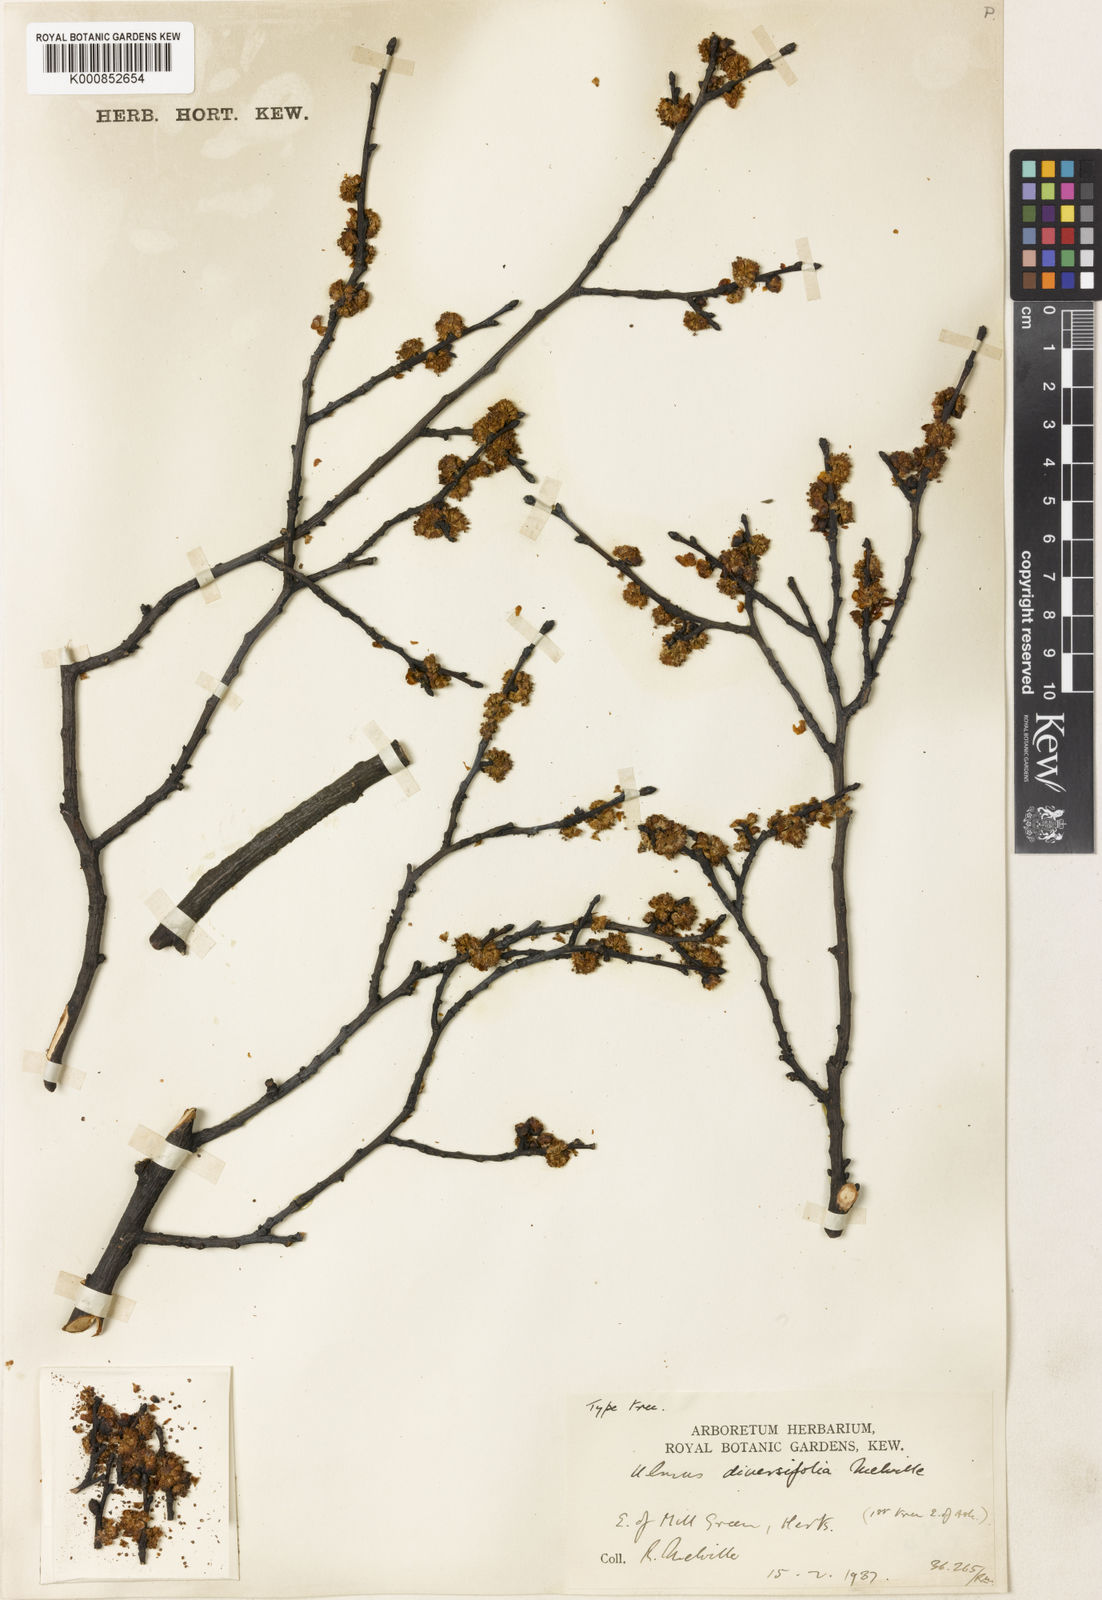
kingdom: Plantae
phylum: Tracheophyta
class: Magnoliopsida
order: Rosales
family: Ulmaceae
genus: Ulmus
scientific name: Ulmus minor
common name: Small-leaved elm
